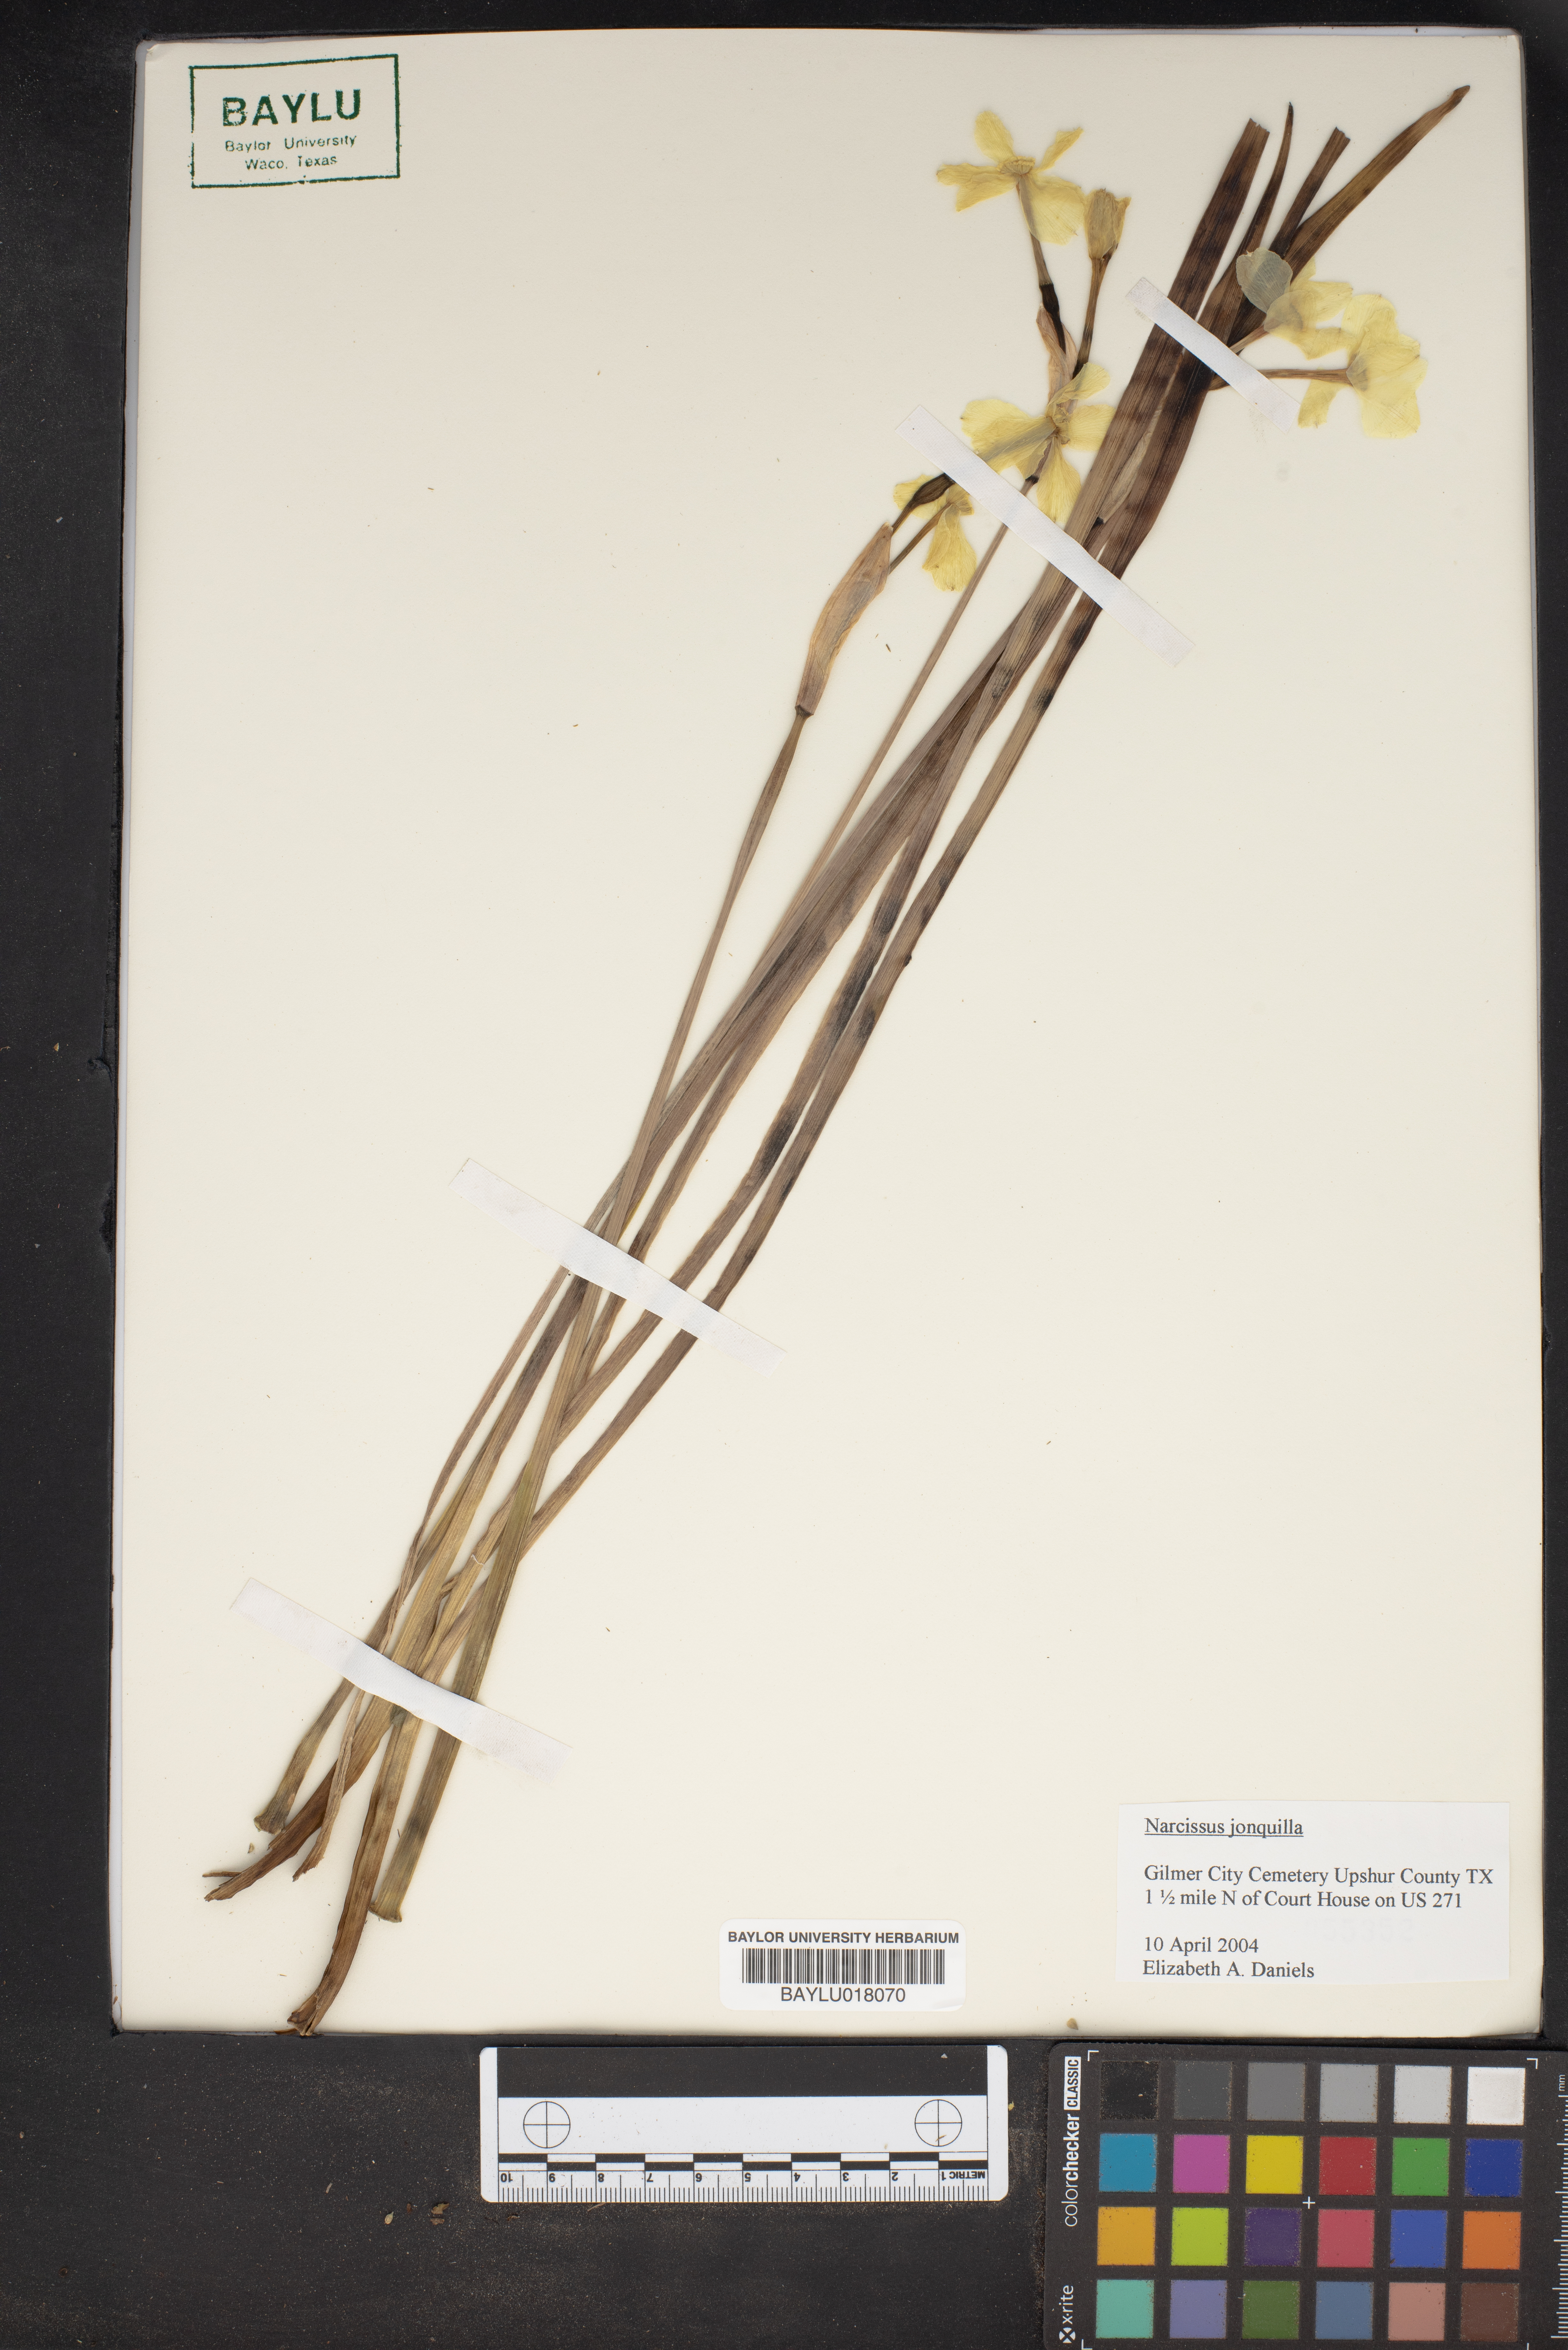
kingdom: Plantae
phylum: Tracheophyta
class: Liliopsida
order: Asparagales
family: Amaryllidaceae
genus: Narcissus
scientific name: Narcissus jonquilla
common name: Jonquil
